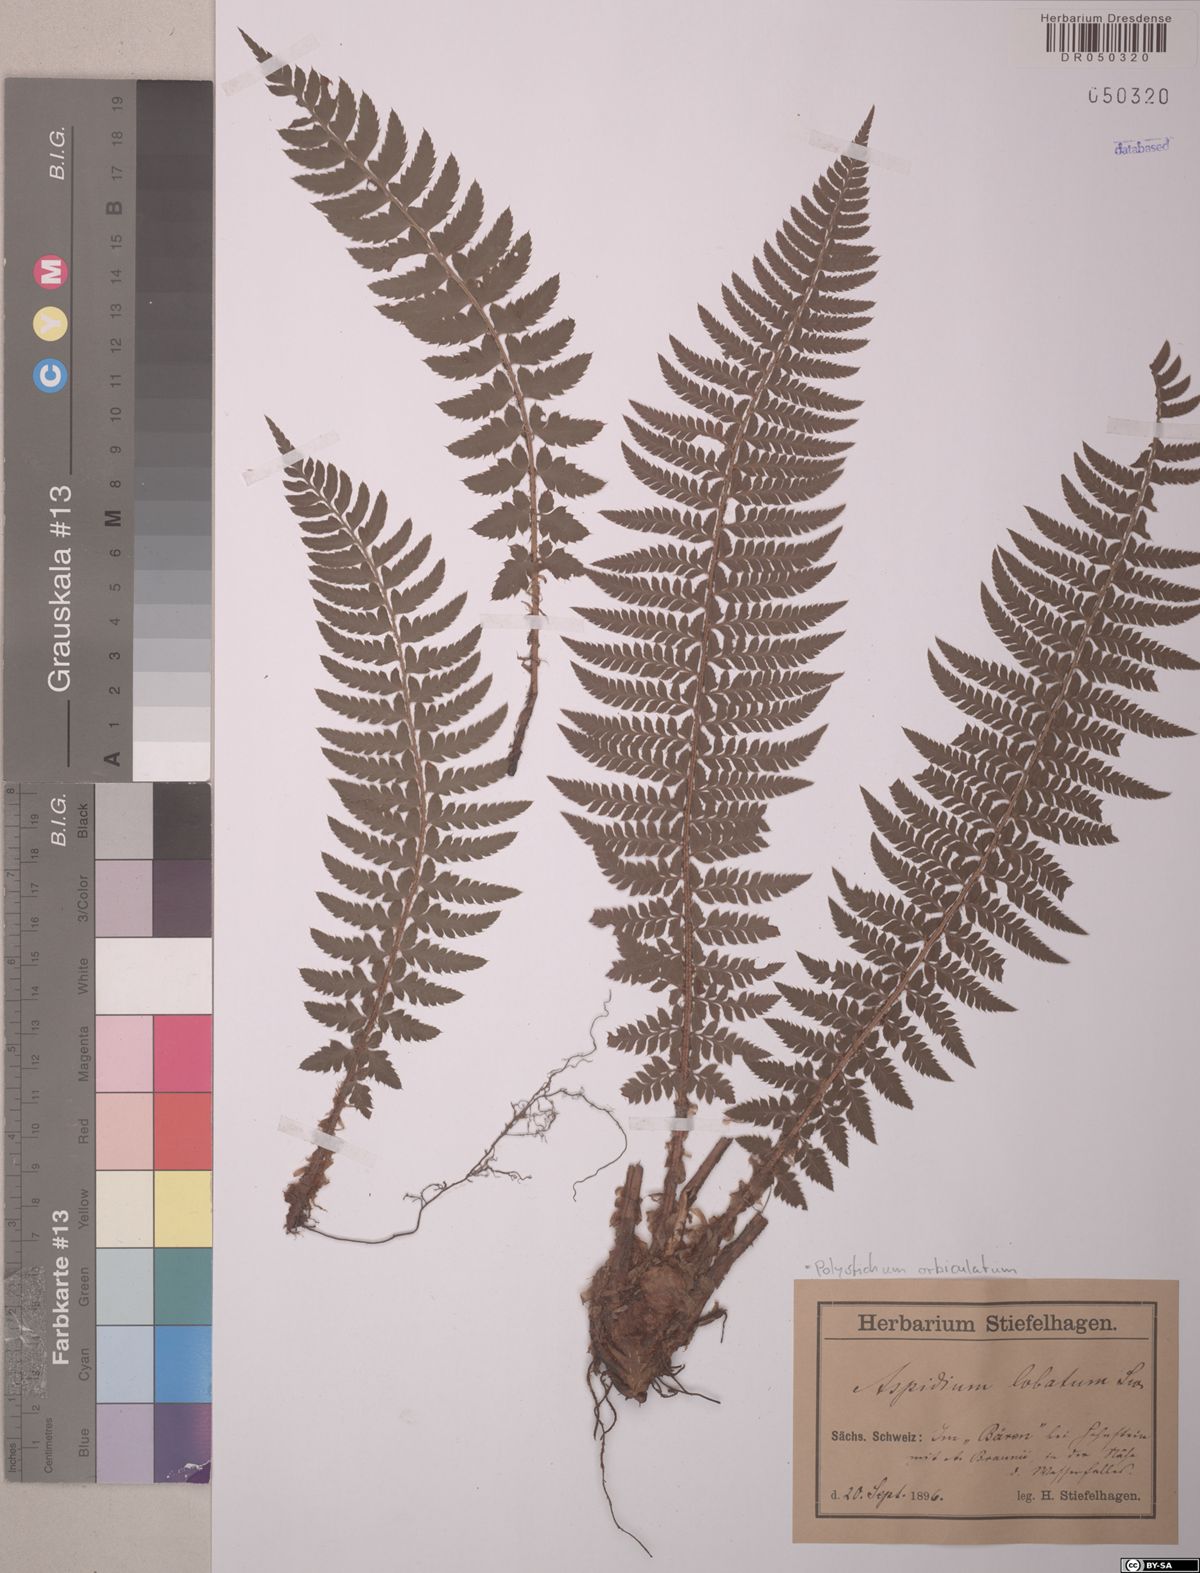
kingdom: Plantae
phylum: Tracheophyta
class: Polypodiopsida
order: Polypodiales
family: Dryopteridaceae
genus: Polystichum
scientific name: Polystichum aculeatum
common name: Hard shield-fern
